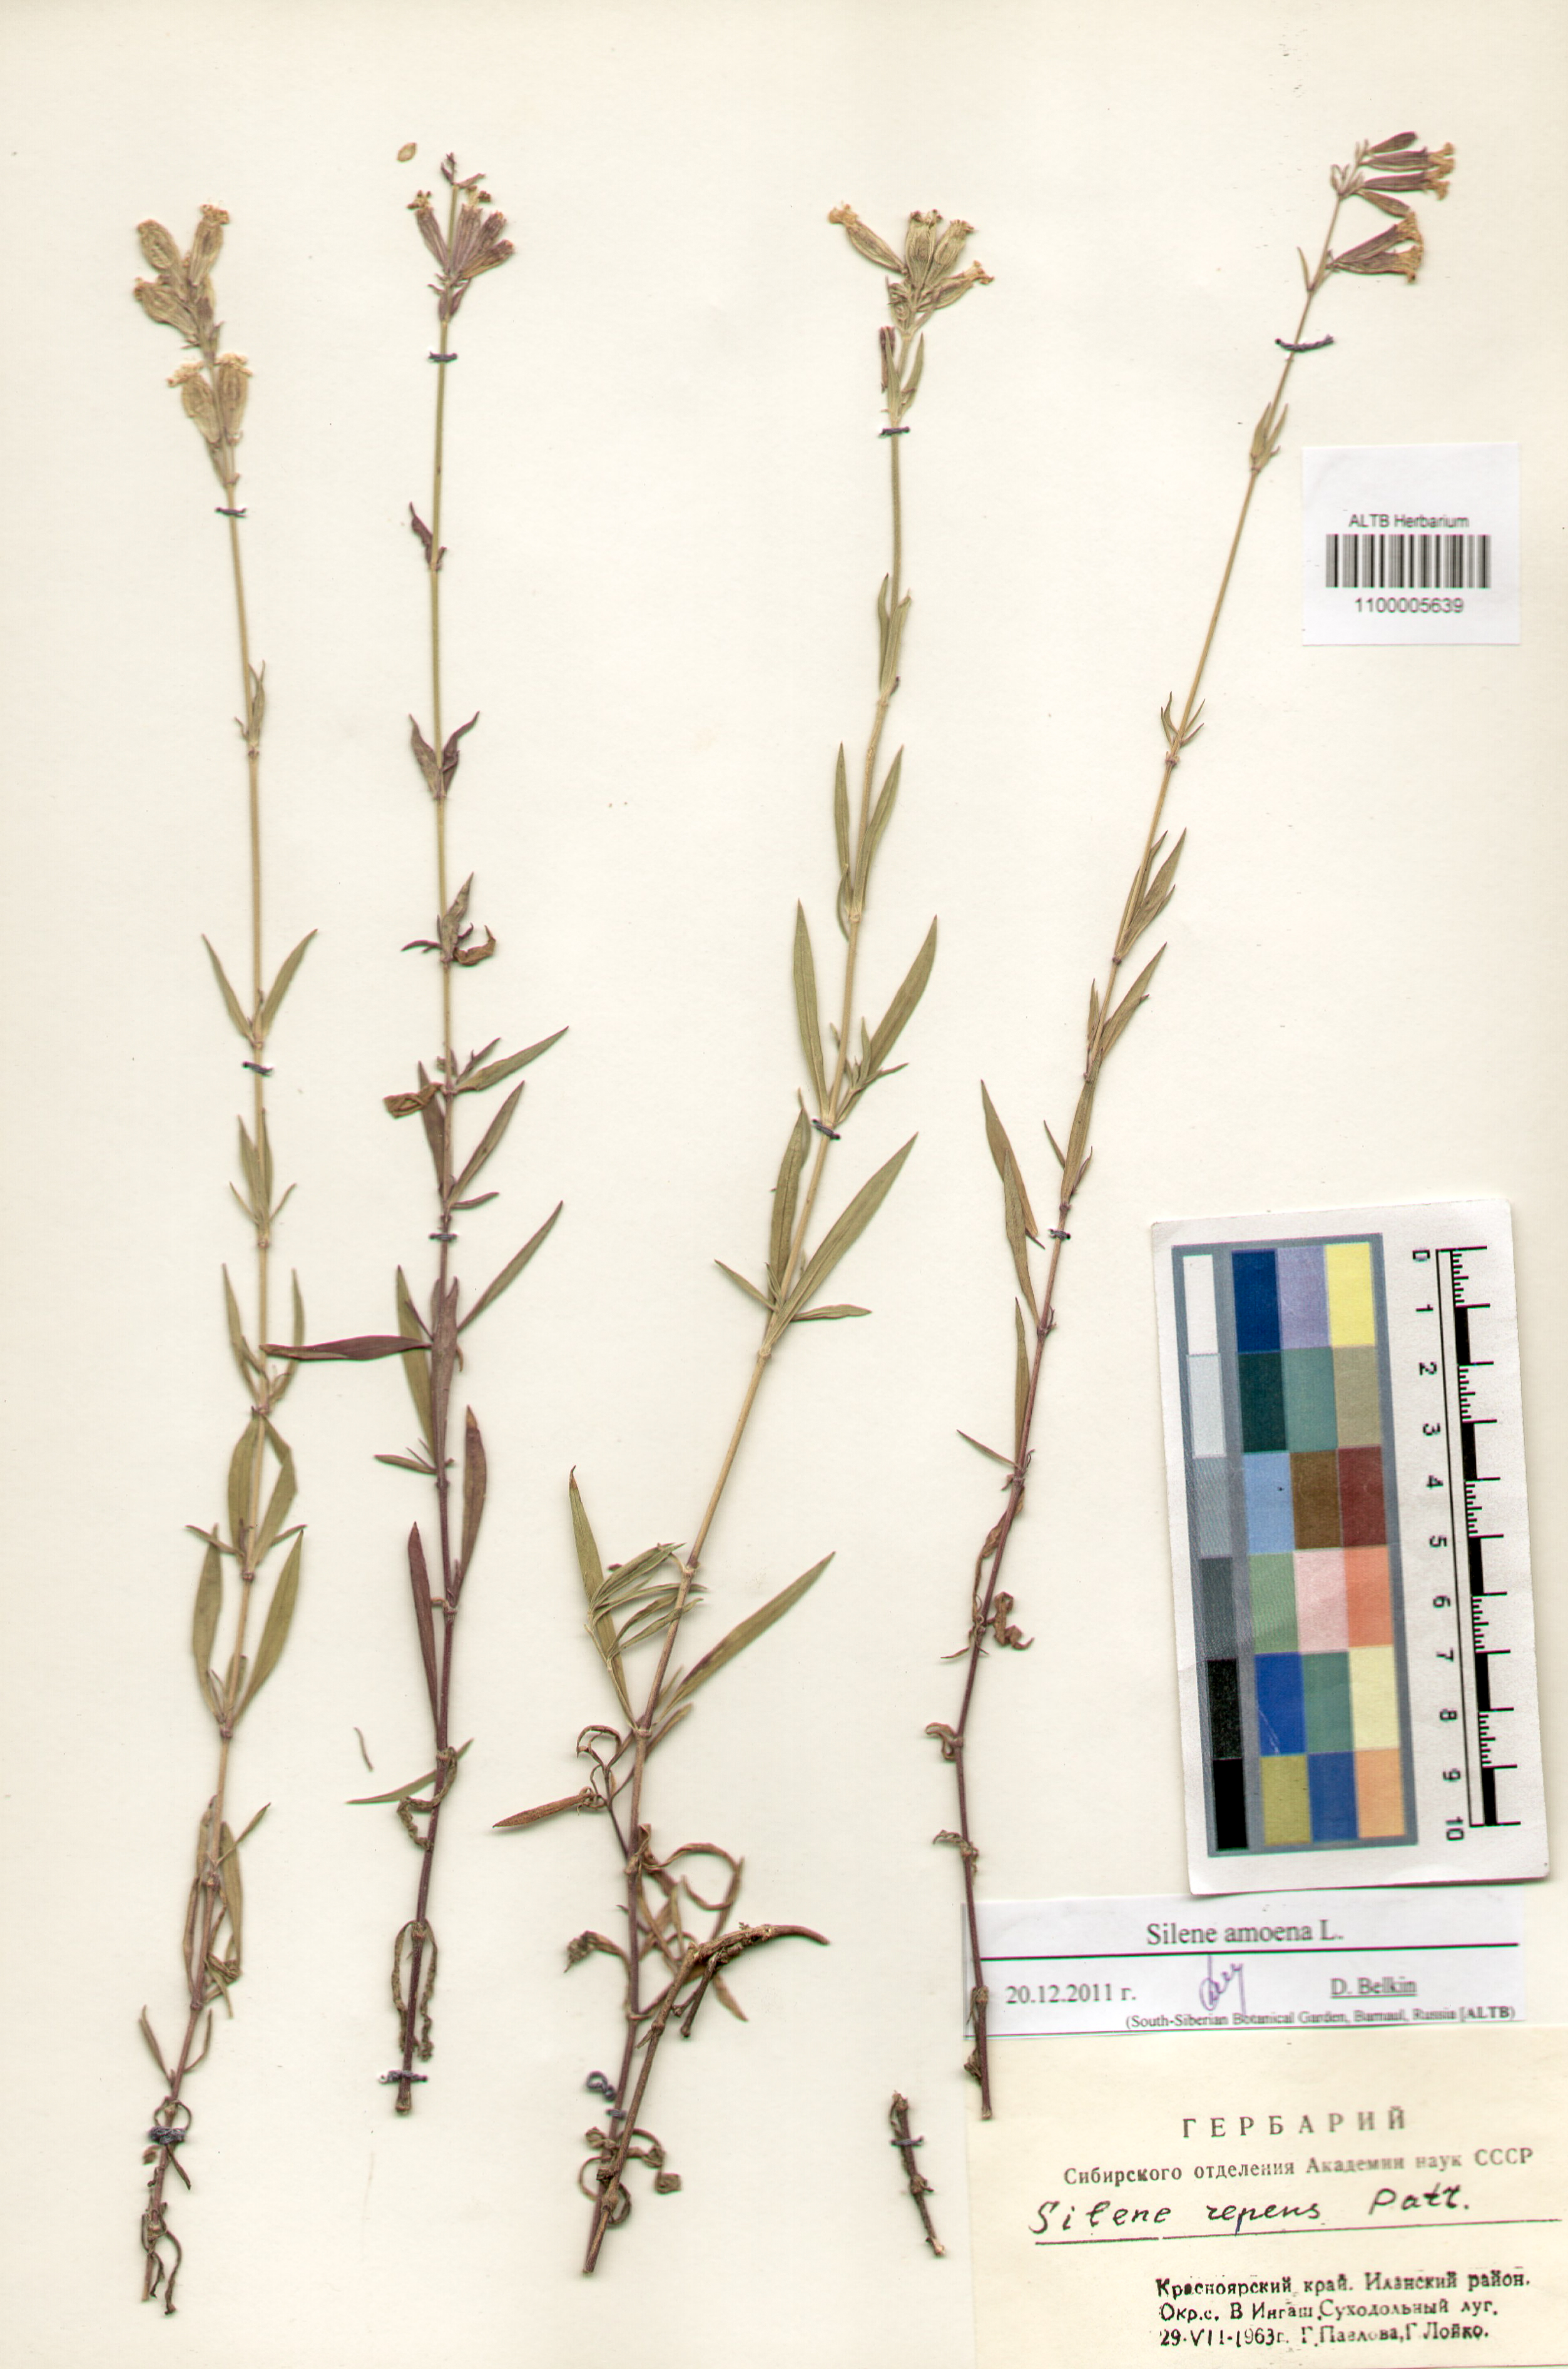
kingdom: Plantae
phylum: Tracheophyta
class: Magnoliopsida
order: Caryophyllales
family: Caryophyllaceae
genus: Silene
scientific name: Silene amoena
